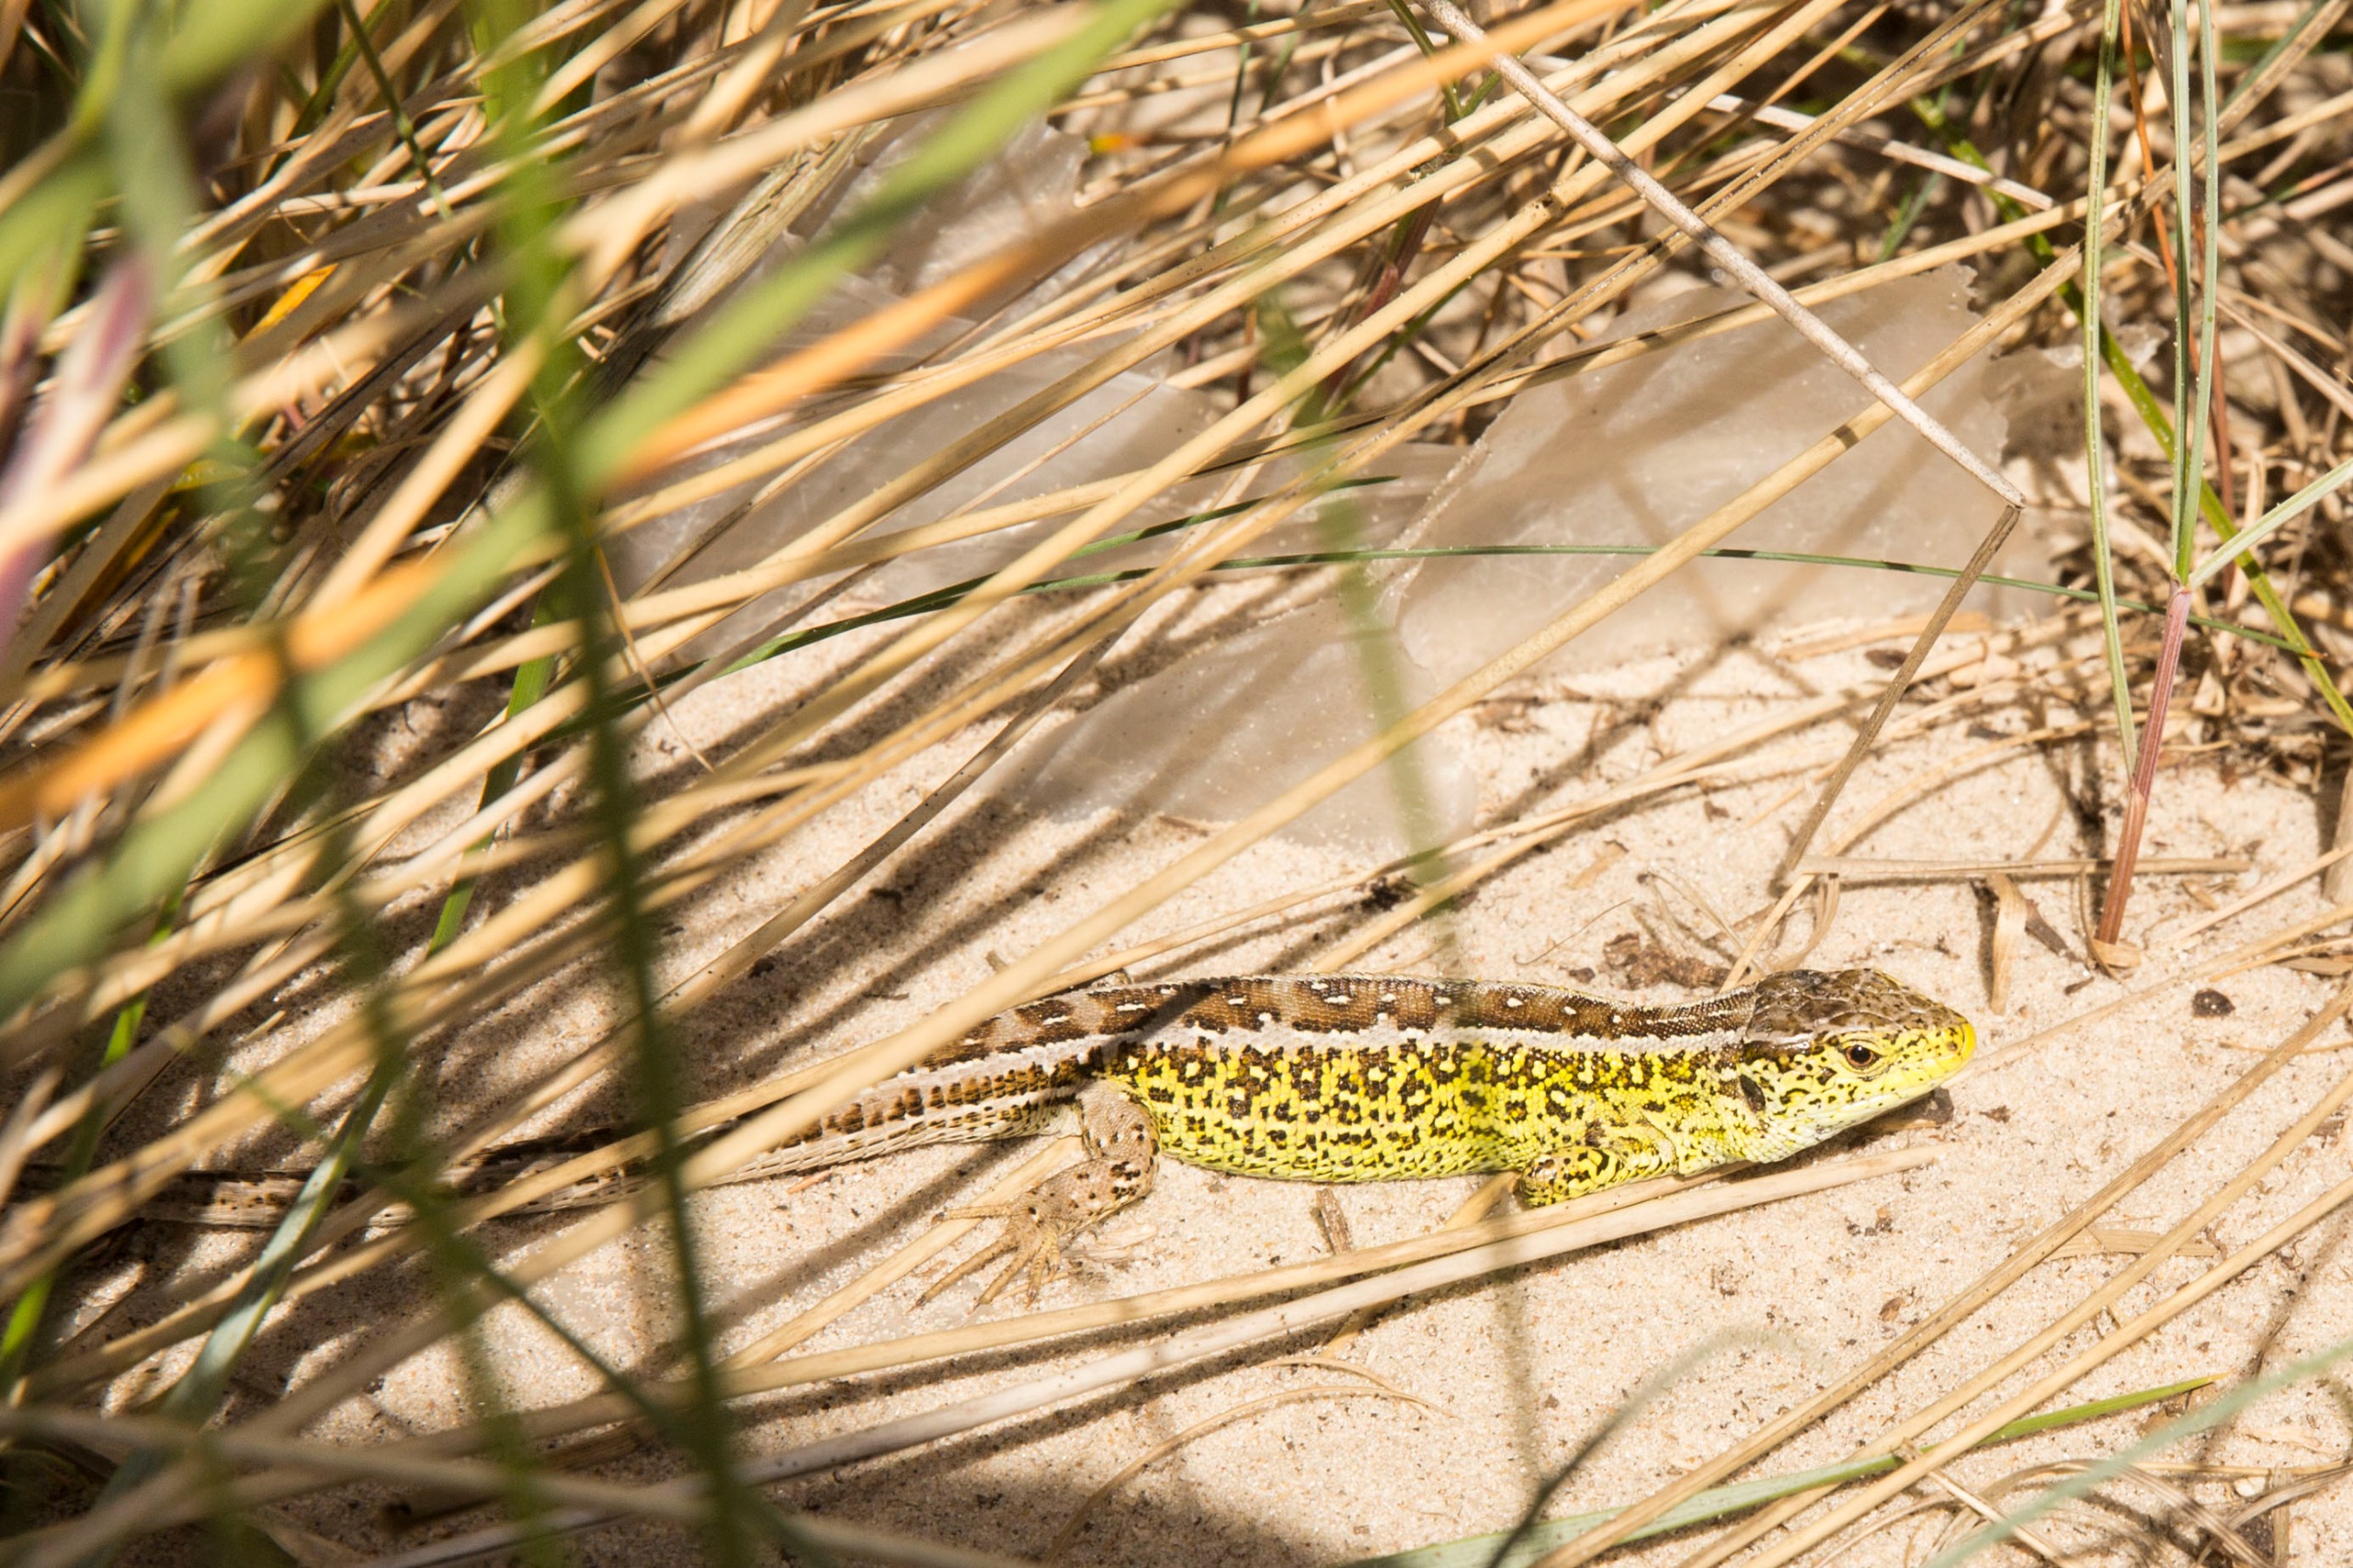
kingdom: Animalia
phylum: Chordata
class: Squamata
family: Lacertidae
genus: Lacerta
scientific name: Lacerta agilis
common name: Markfirben
